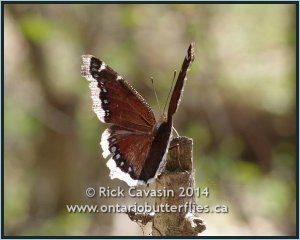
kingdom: Animalia
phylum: Arthropoda
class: Insecta
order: Lepidoptera
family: Nymphalidae
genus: Nymphalis
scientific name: Nymphalis antiopa
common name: Mourning Cloak
